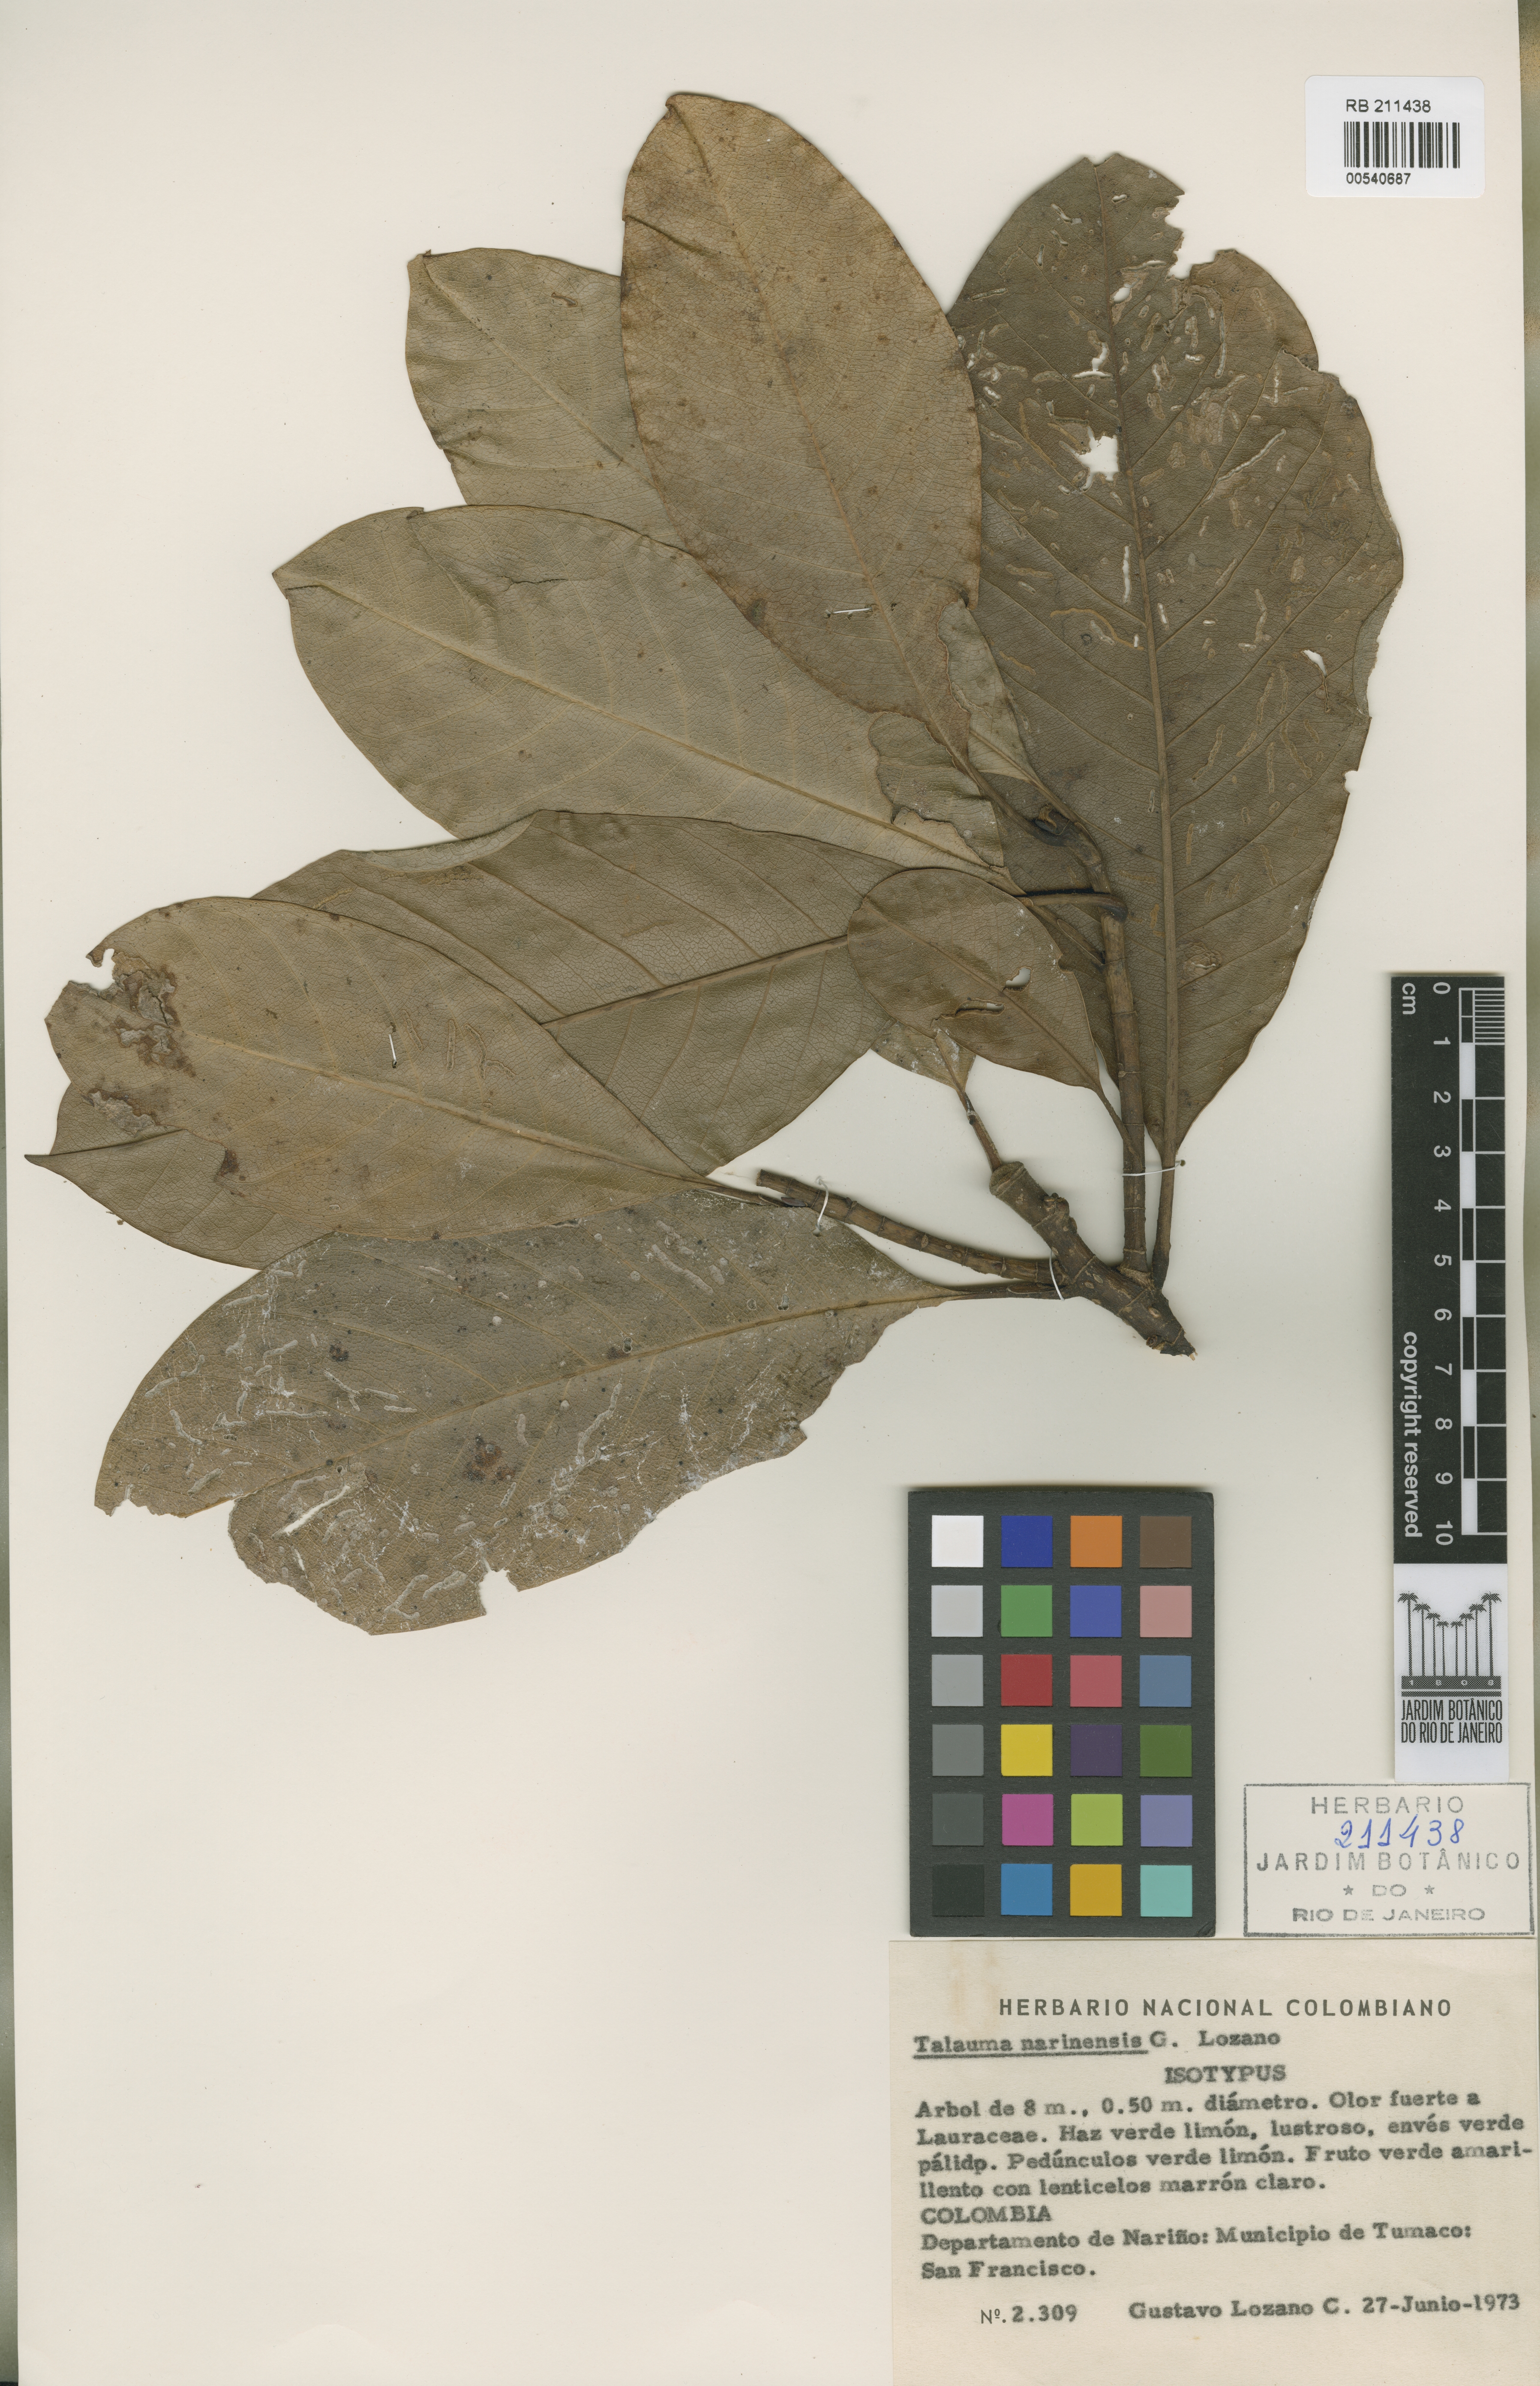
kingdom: Plantae
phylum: Tracheophyta
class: Magnoliopsida
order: Magnoliales
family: Magnoliaceae
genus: Magnolia
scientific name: Magnolia narinensis
